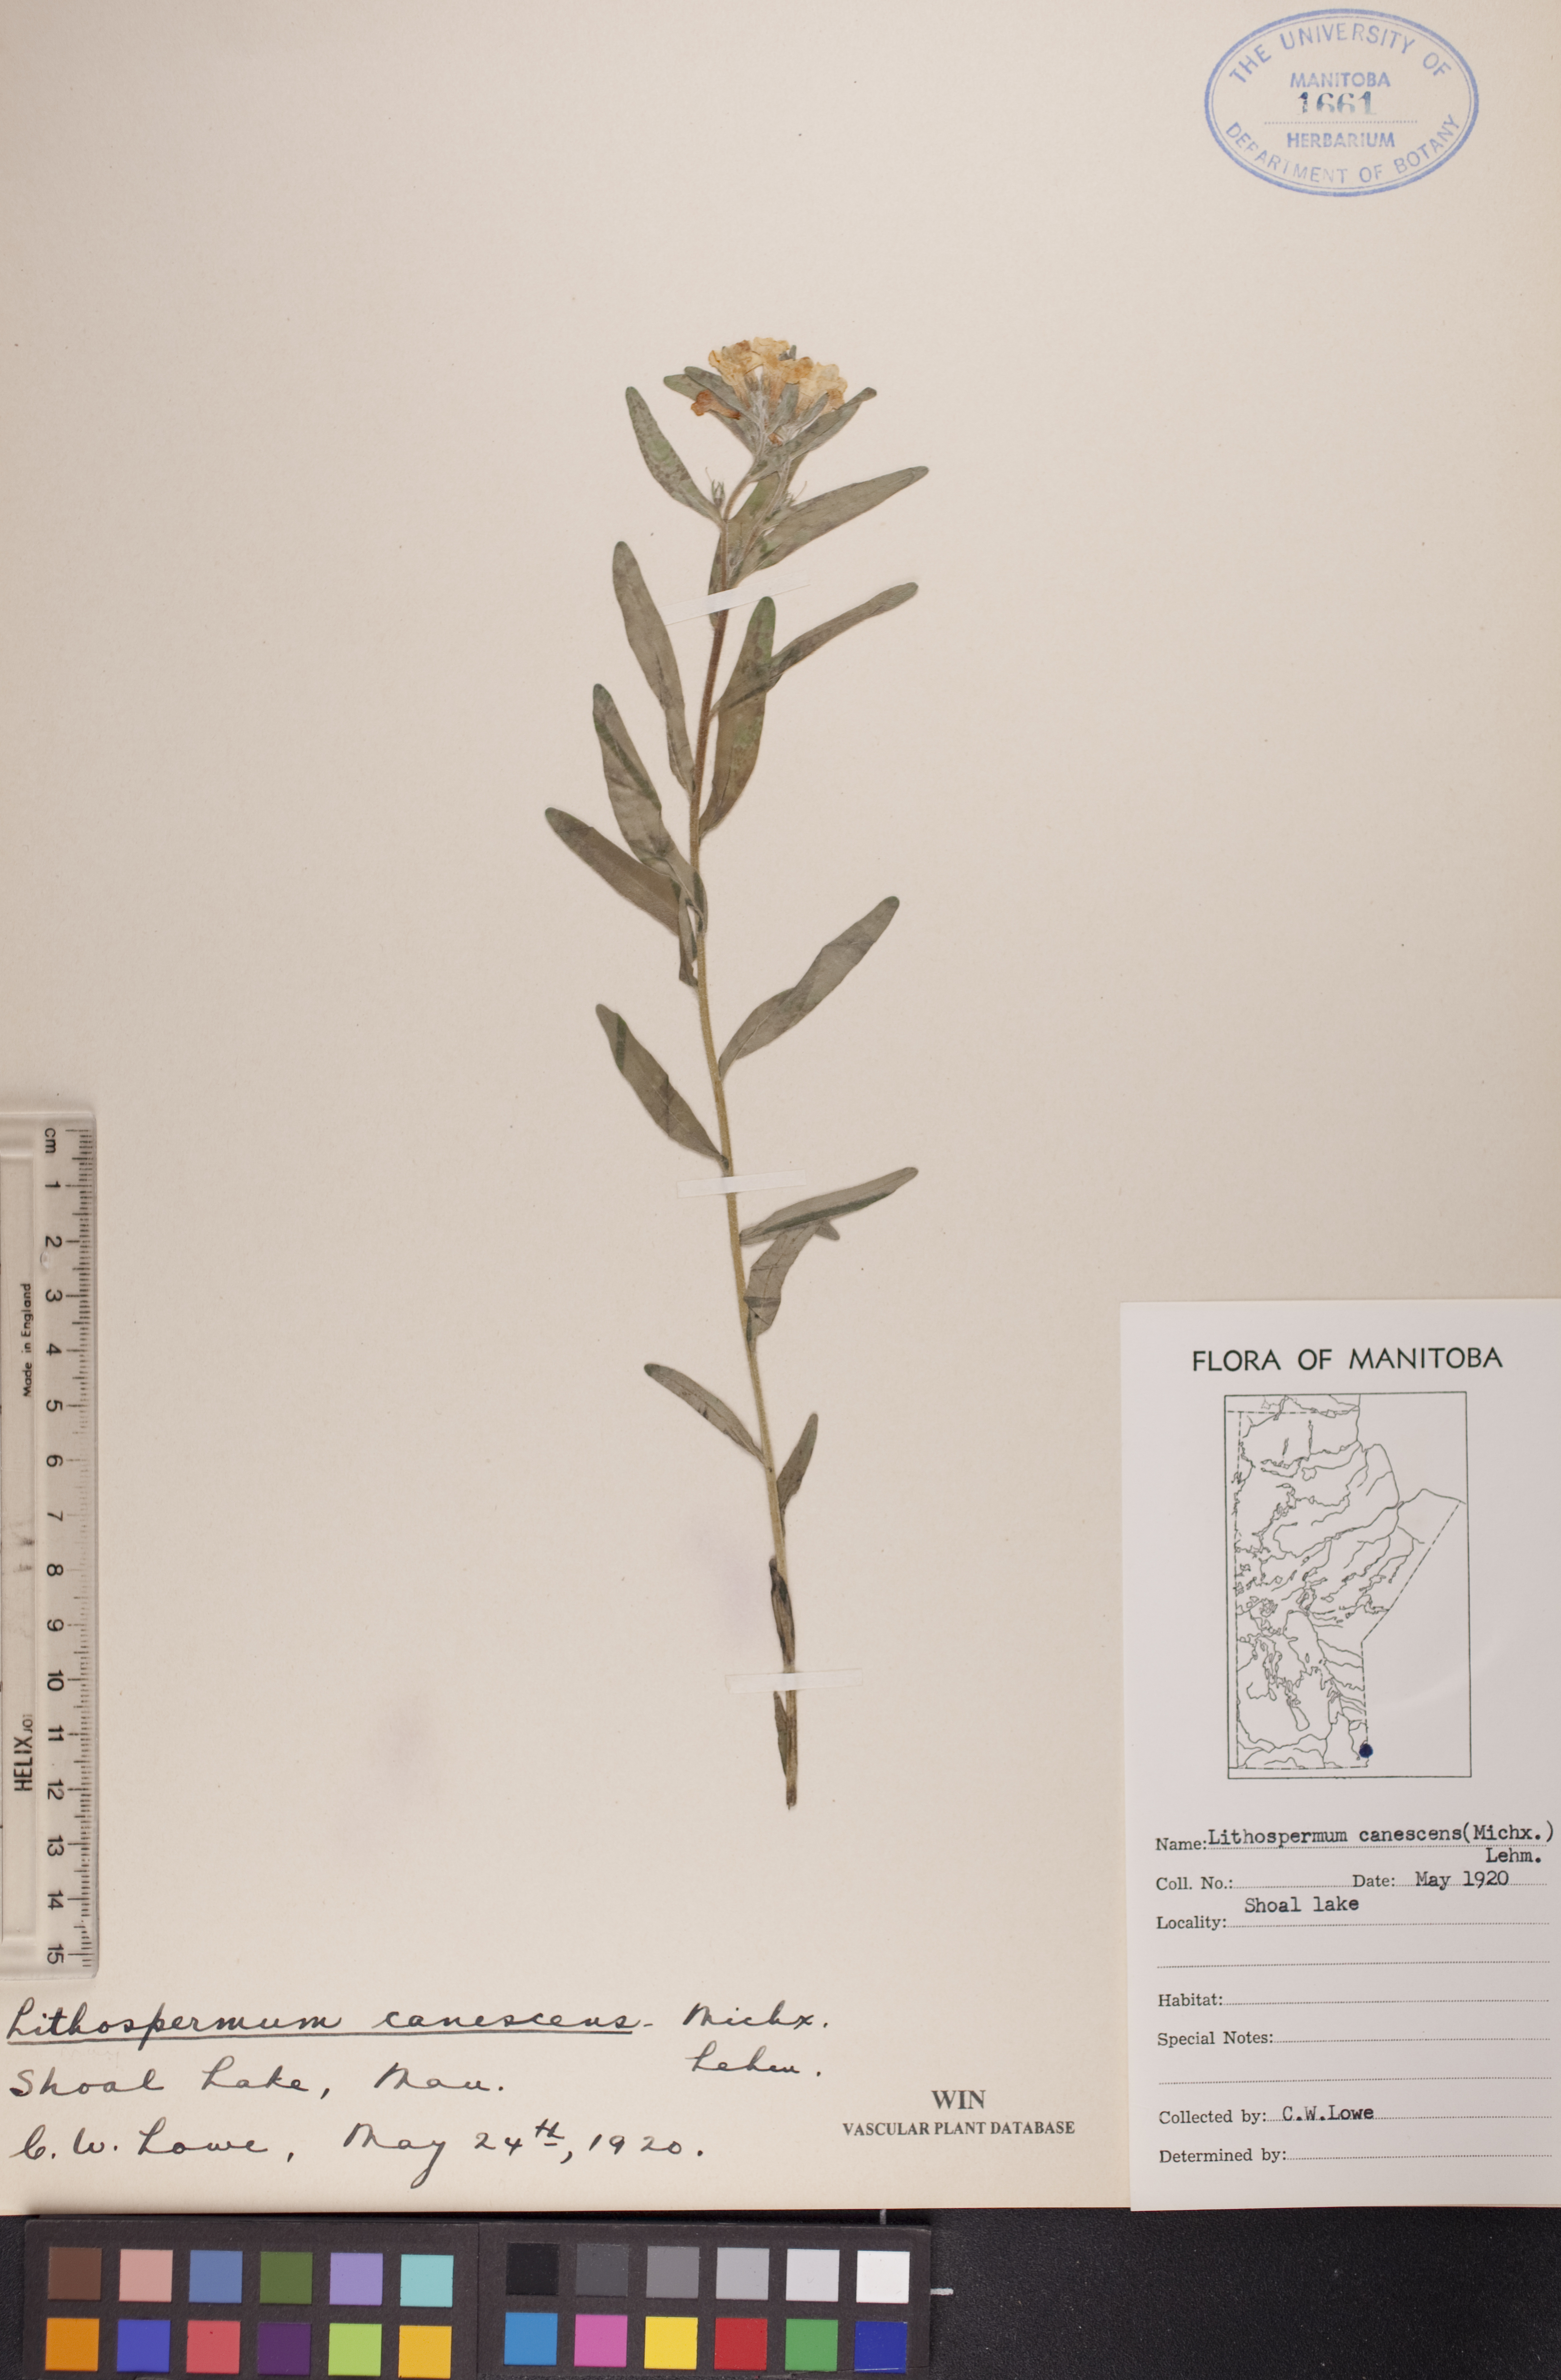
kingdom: Plantae
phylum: Tracheophyta
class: Magnoliopsida
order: Boraginales
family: Boraginaceae
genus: Lithospermum
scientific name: Lithospermum canescens
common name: Hoary puccoon
